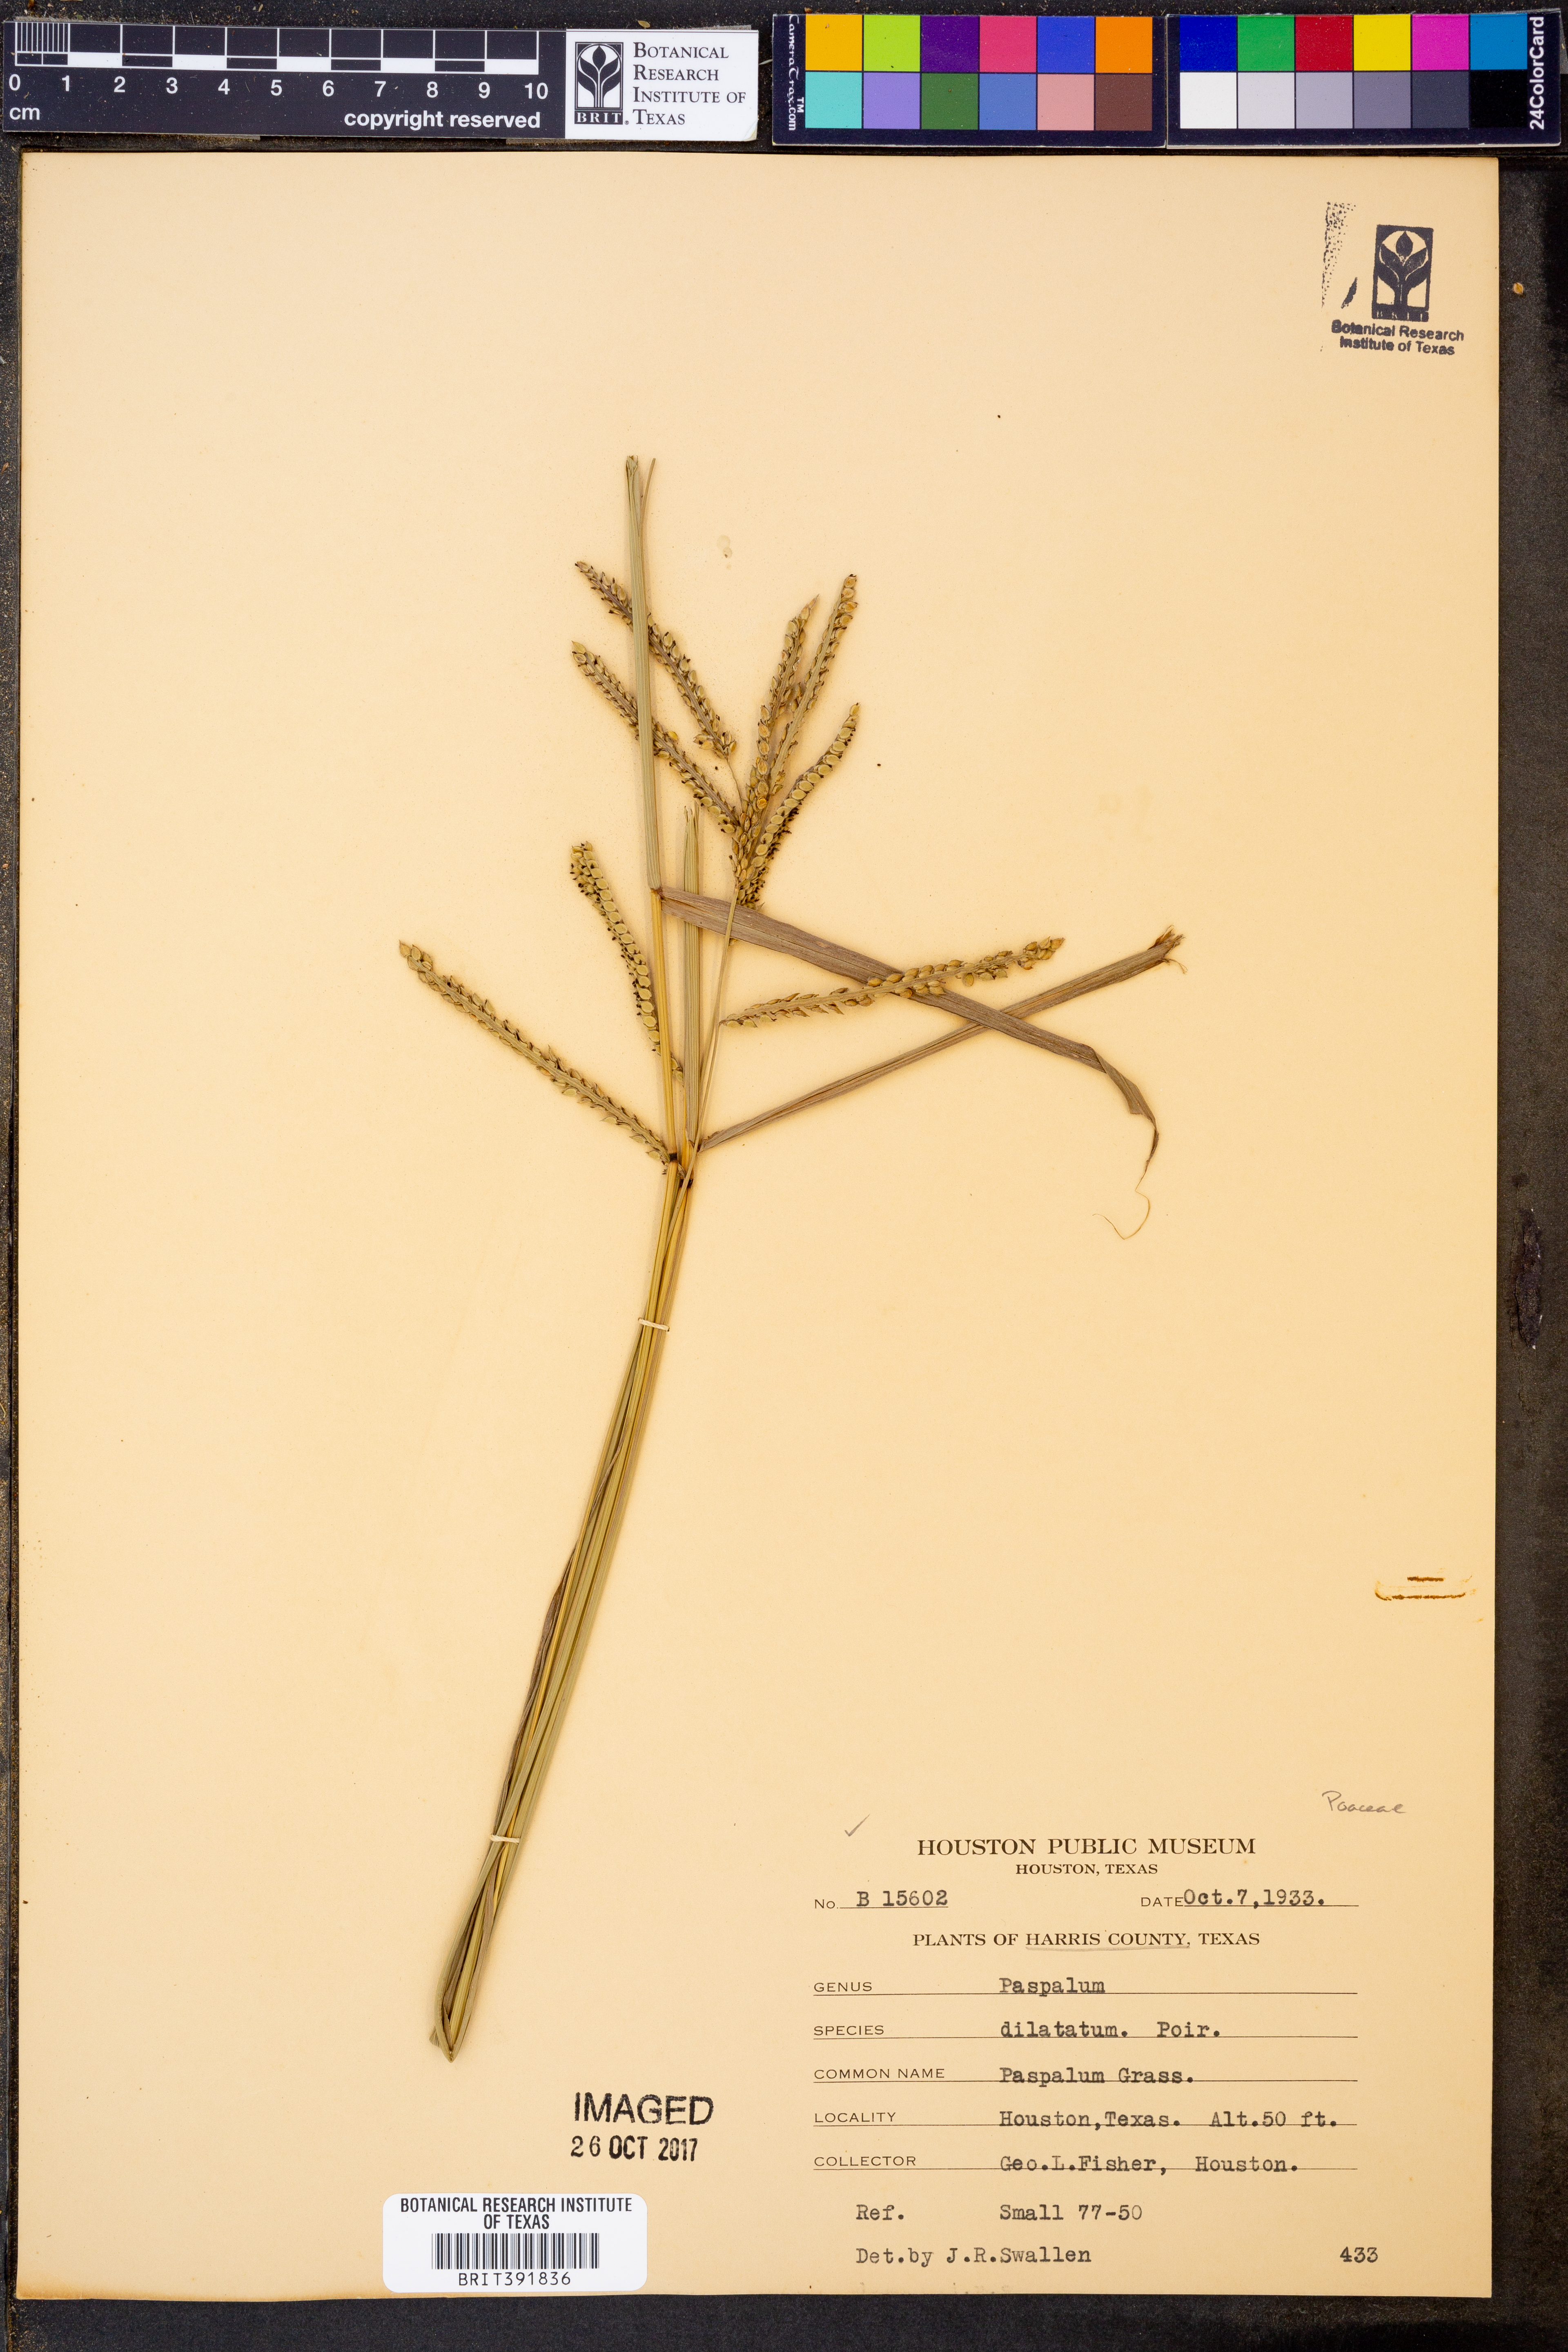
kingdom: Plantae
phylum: Tracheophyta
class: Liliopsida
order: Poales
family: Poaceae
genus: Paspalum
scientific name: Paspalum dilatatum
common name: Dallisgrass
